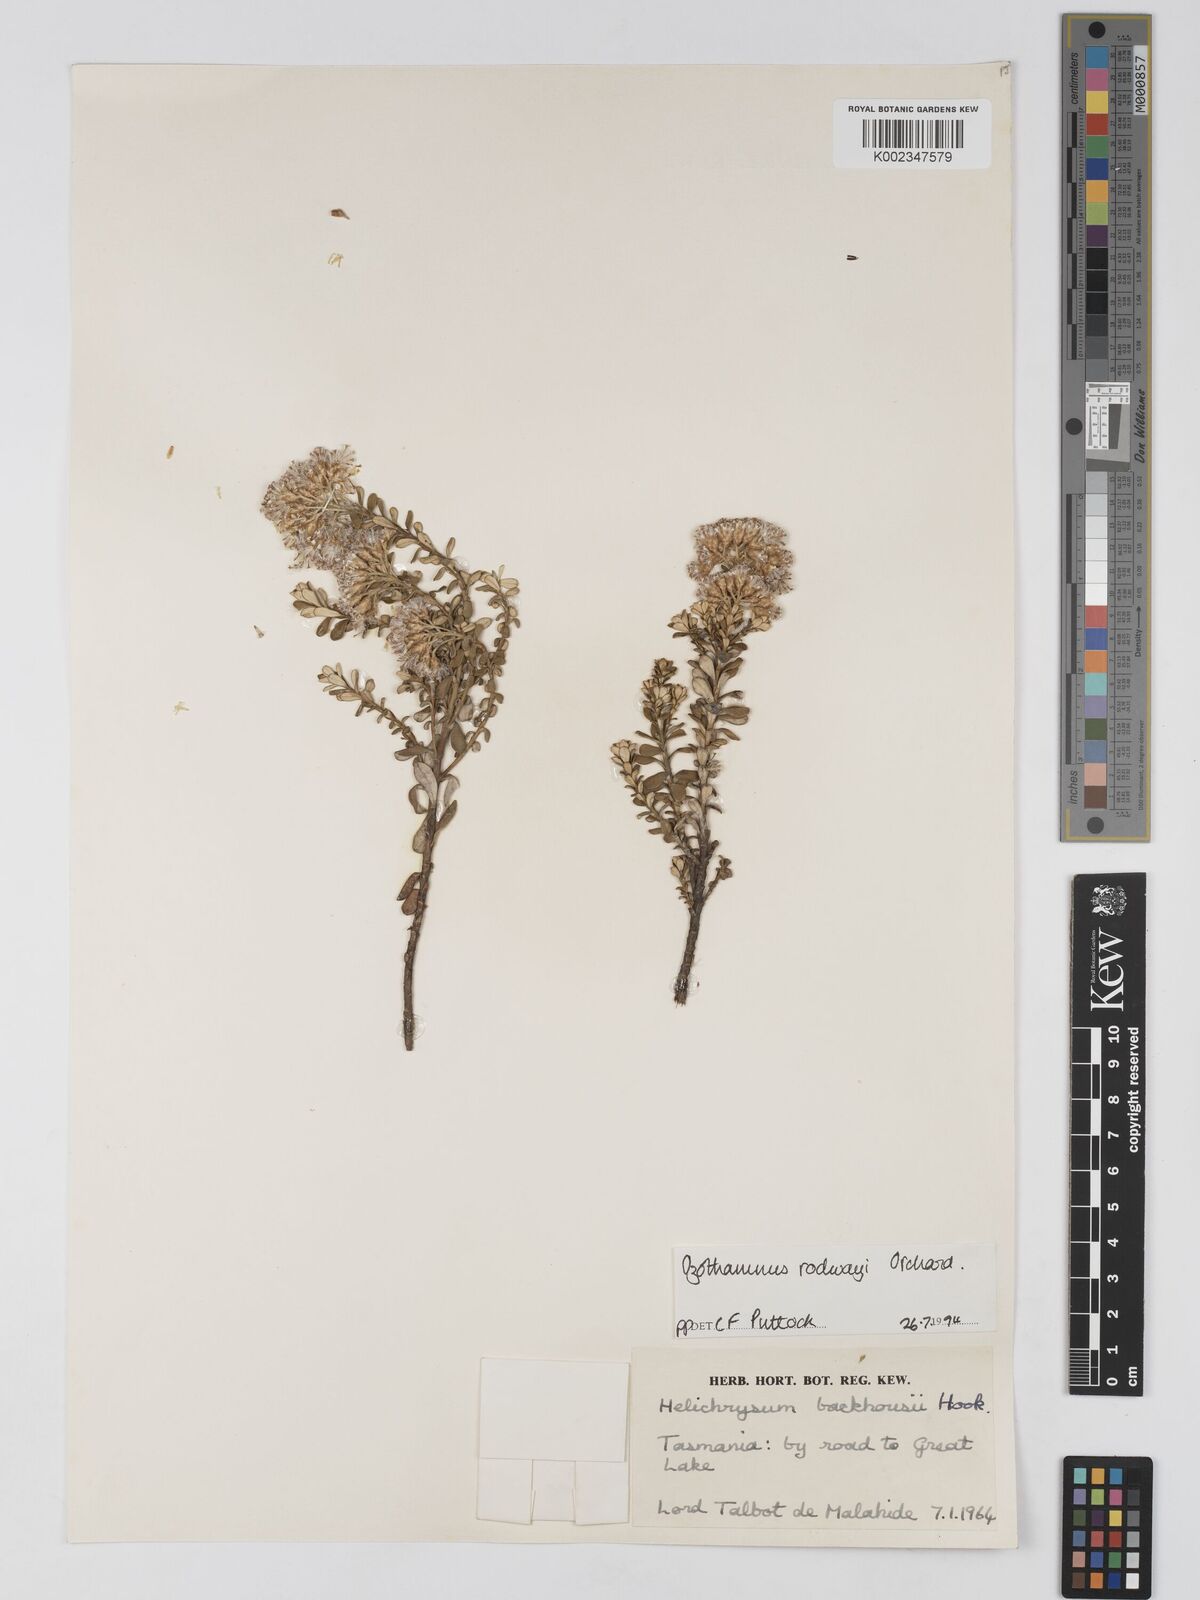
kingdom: Plantae
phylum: Tracheophyta
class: Magnoliopsida
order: Asterales
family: Asteraceae
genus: Ozothamnus
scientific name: Ozothamnus rodwayi
